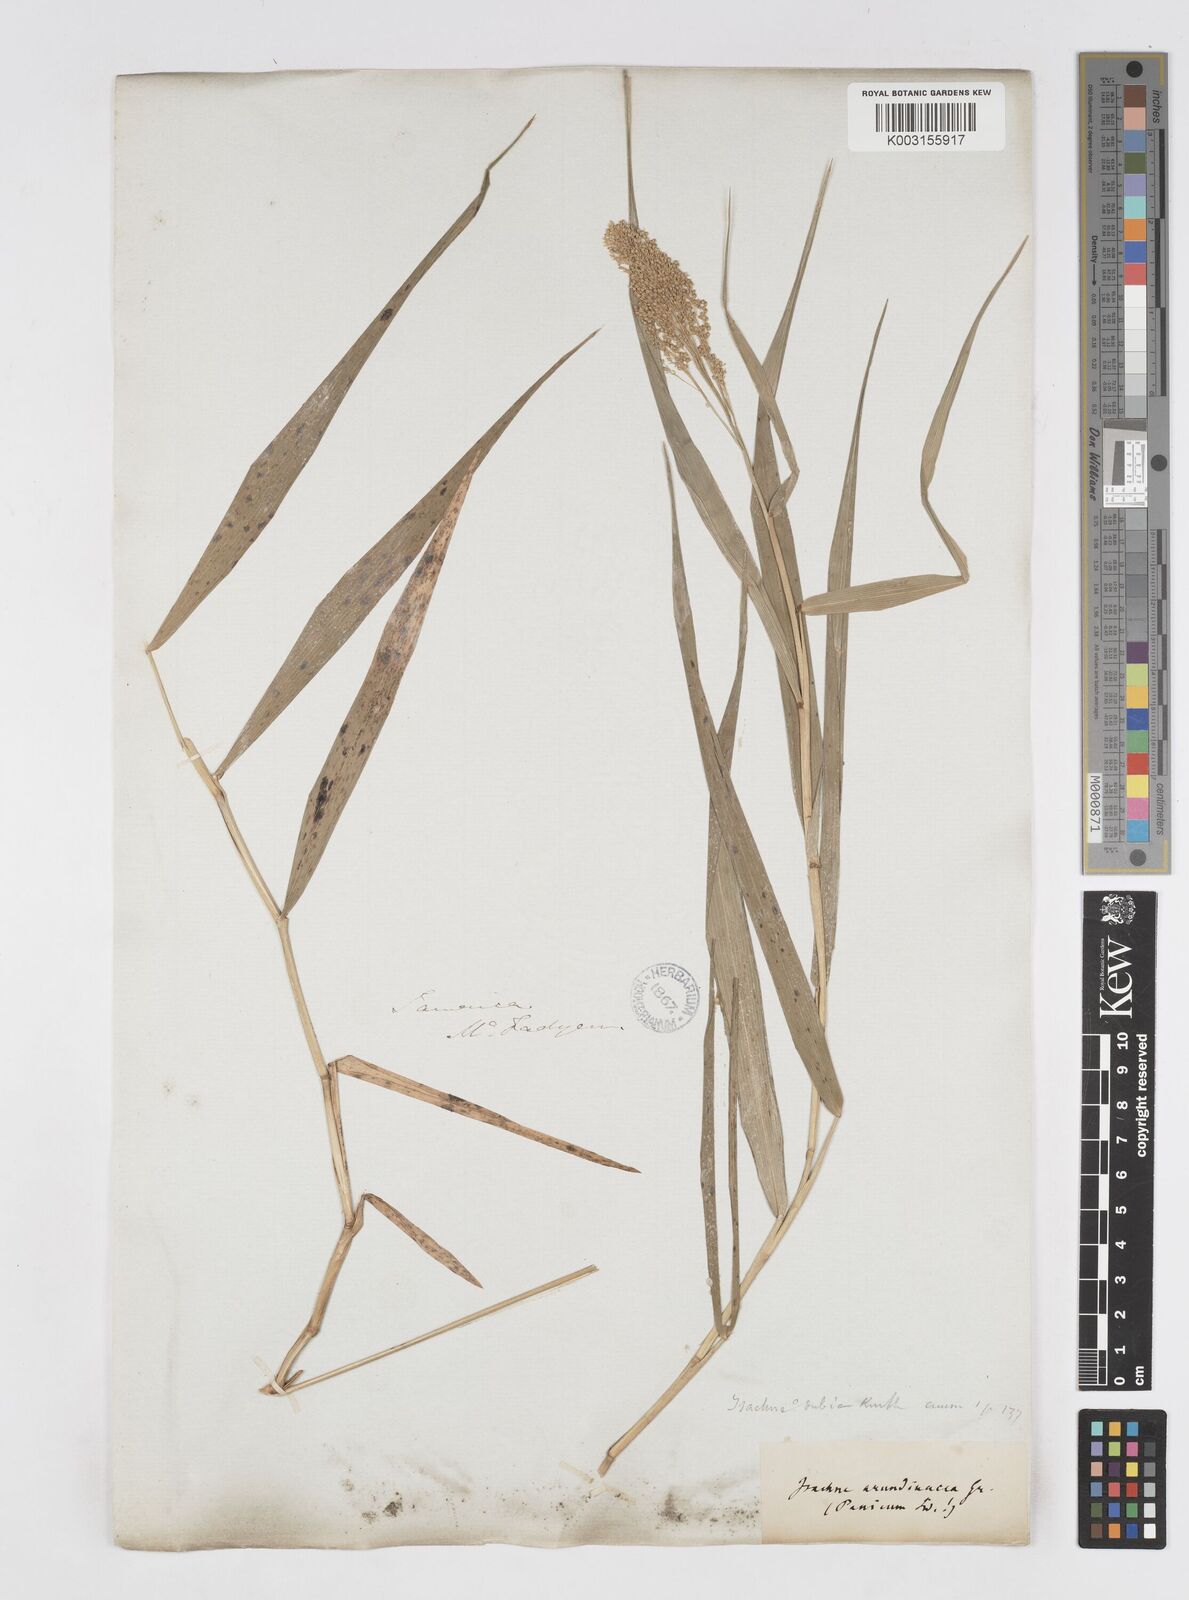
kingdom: Plantae
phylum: Tracheophyta
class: Liliopsida
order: Poales
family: Poaceae
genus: Isachne
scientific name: Isachne arundinacea
